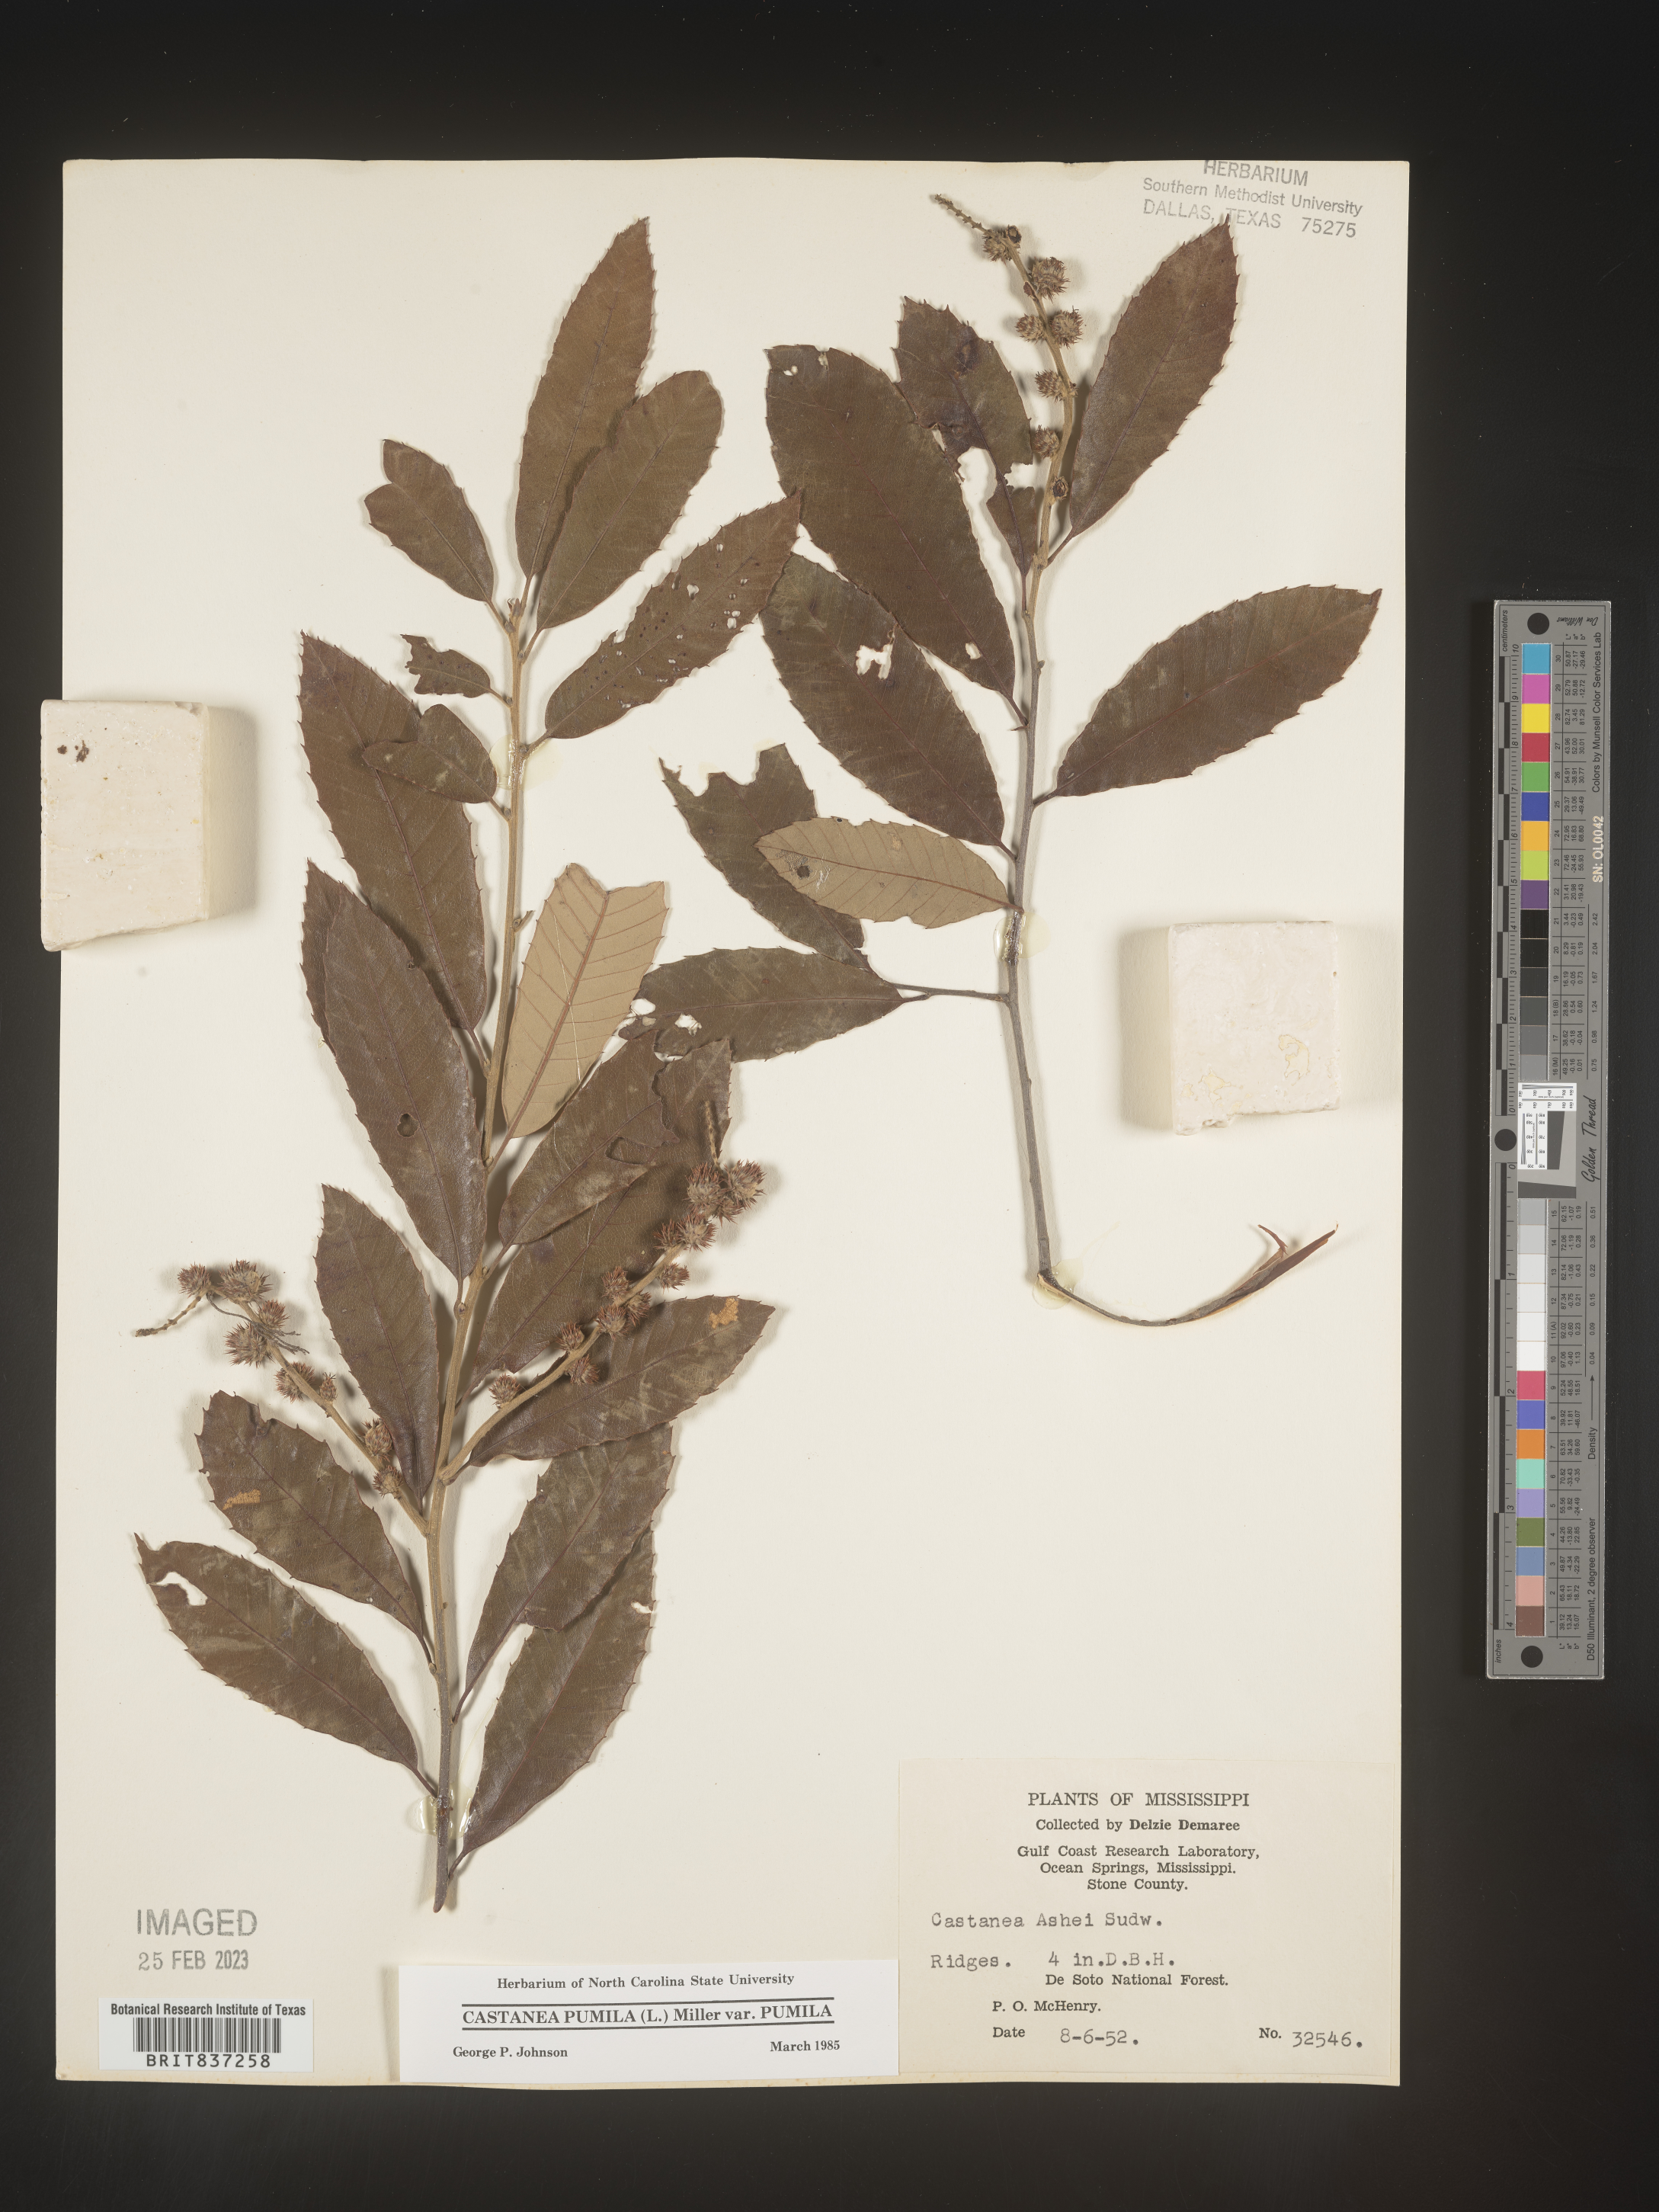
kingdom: Plantae
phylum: Tracheophyta
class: Magnoliopsida
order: Fagales
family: Fagaceae
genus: Castanea
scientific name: Castanea pumila
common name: Chinkapin
